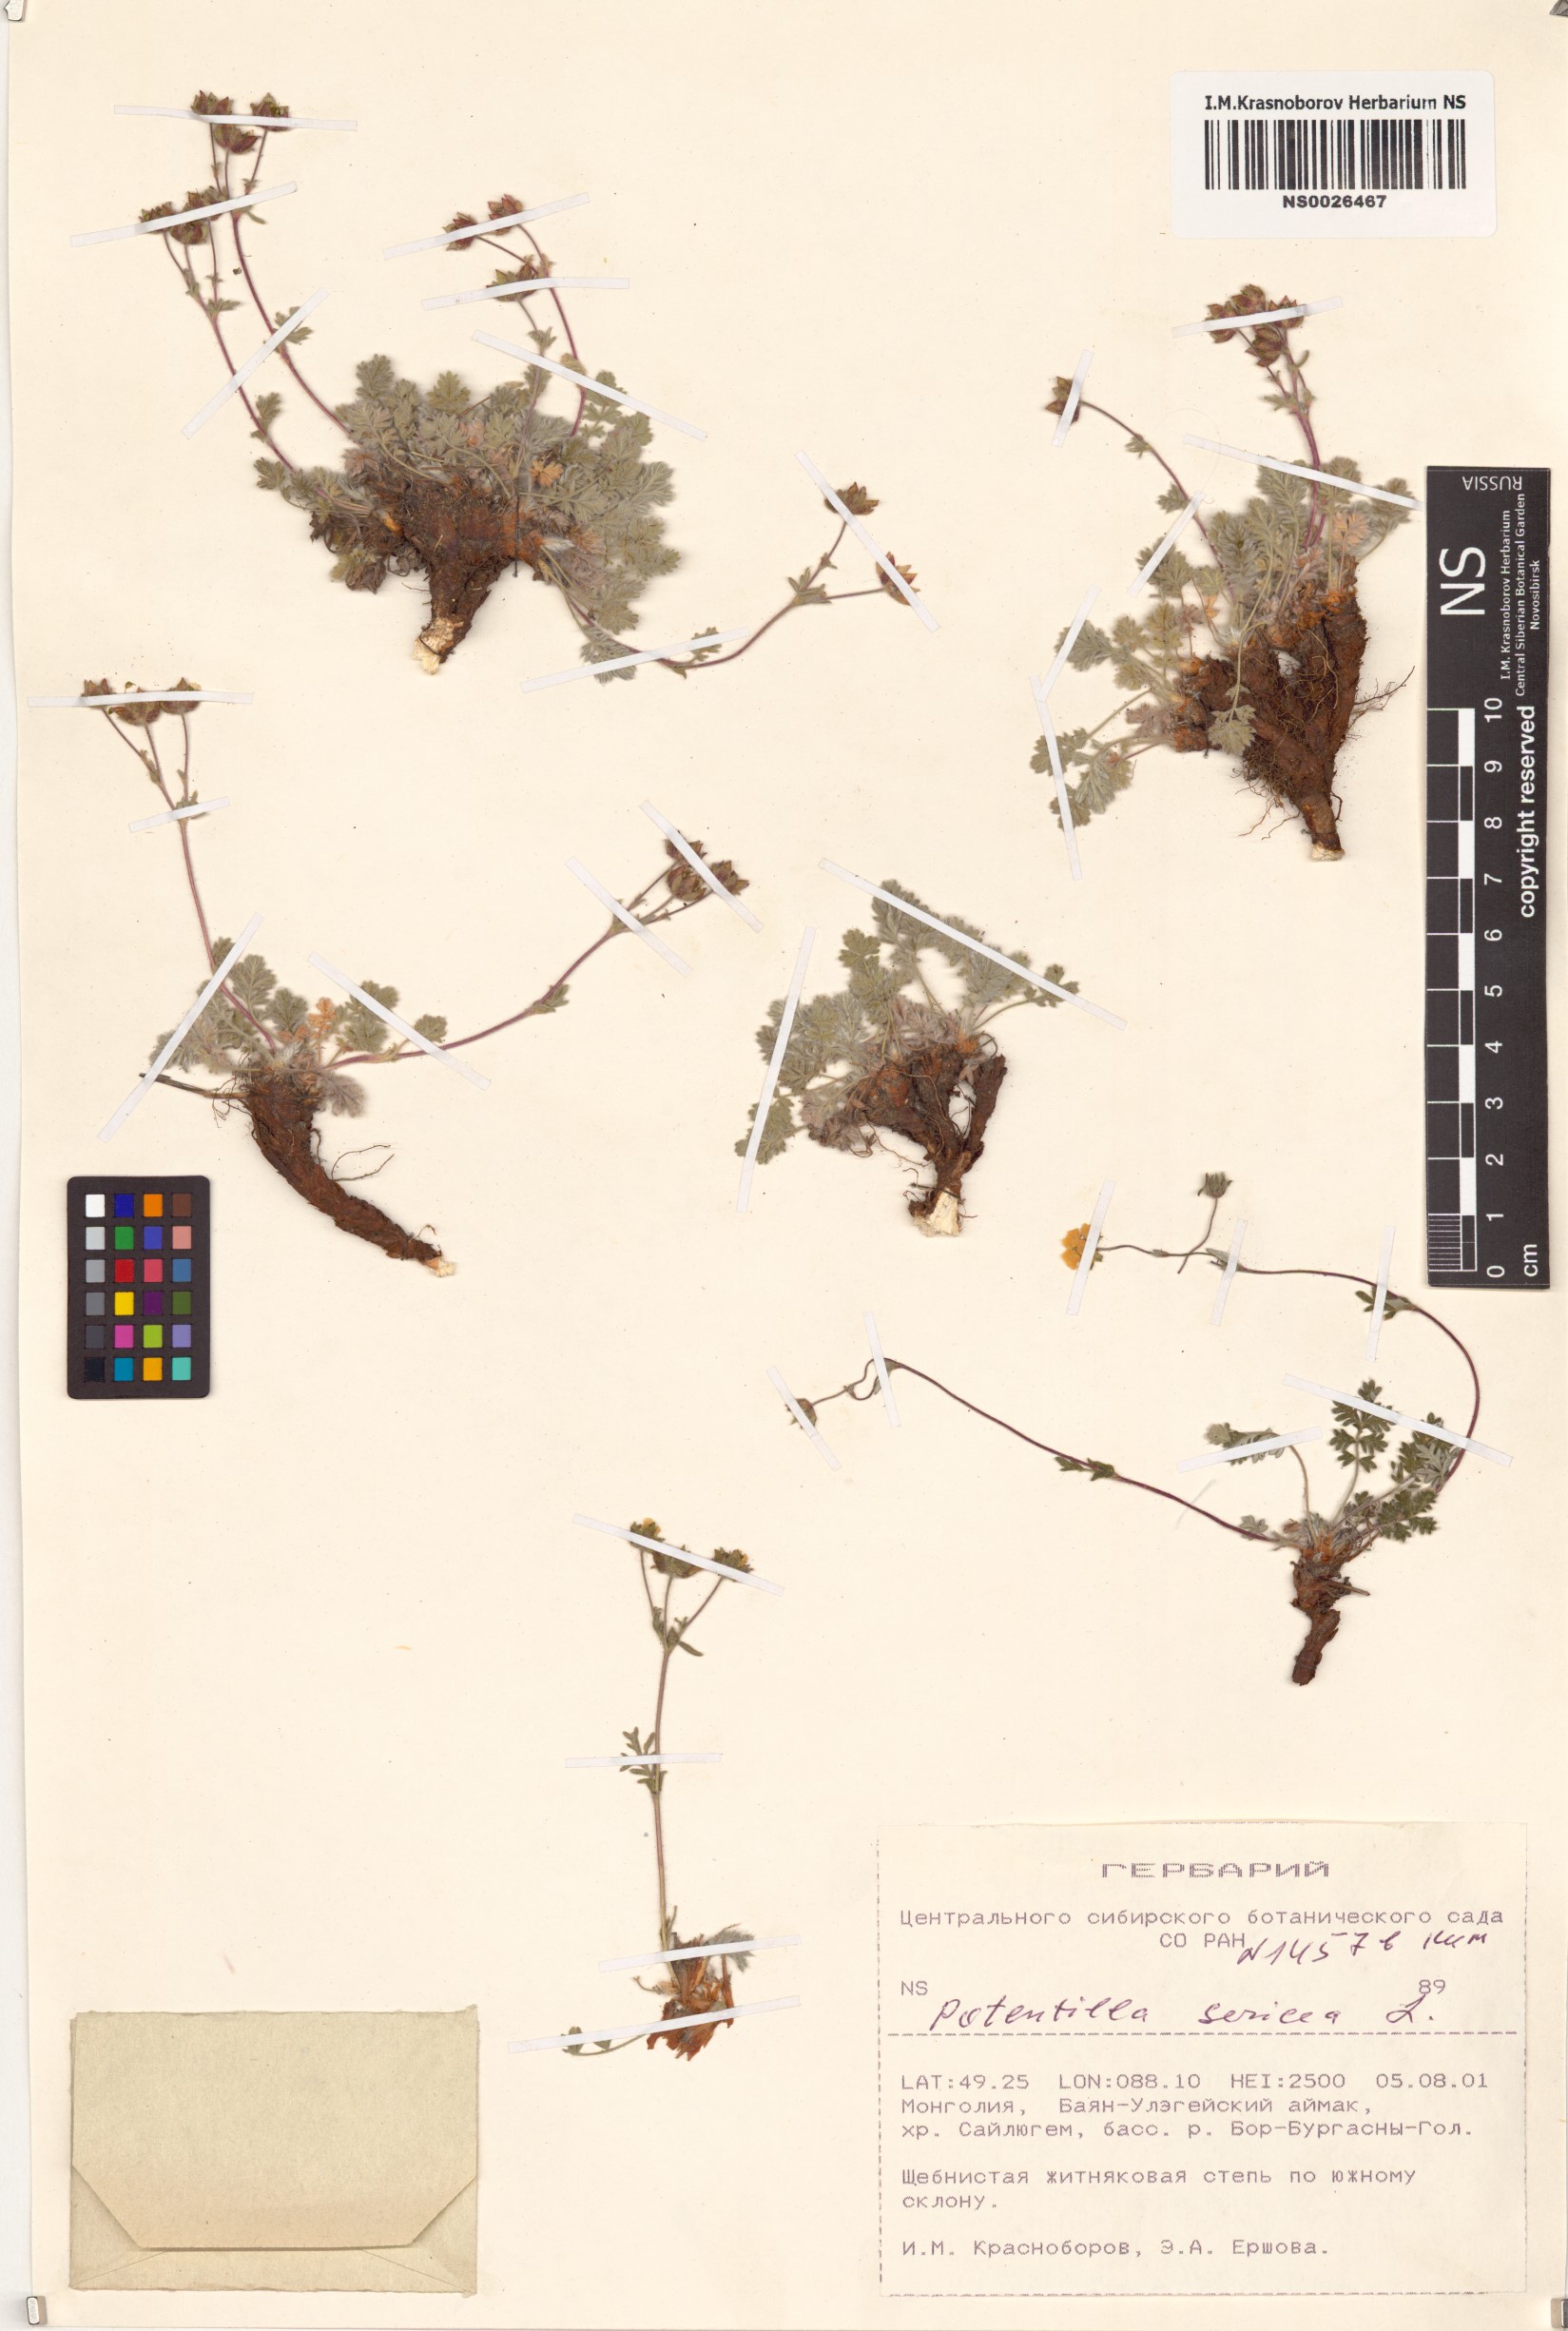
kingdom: Plantae
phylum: Tracheophyta
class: Magnoliopsida
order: Rosales
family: Rosaceae
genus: Potentilla
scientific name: Potentilla sericea
